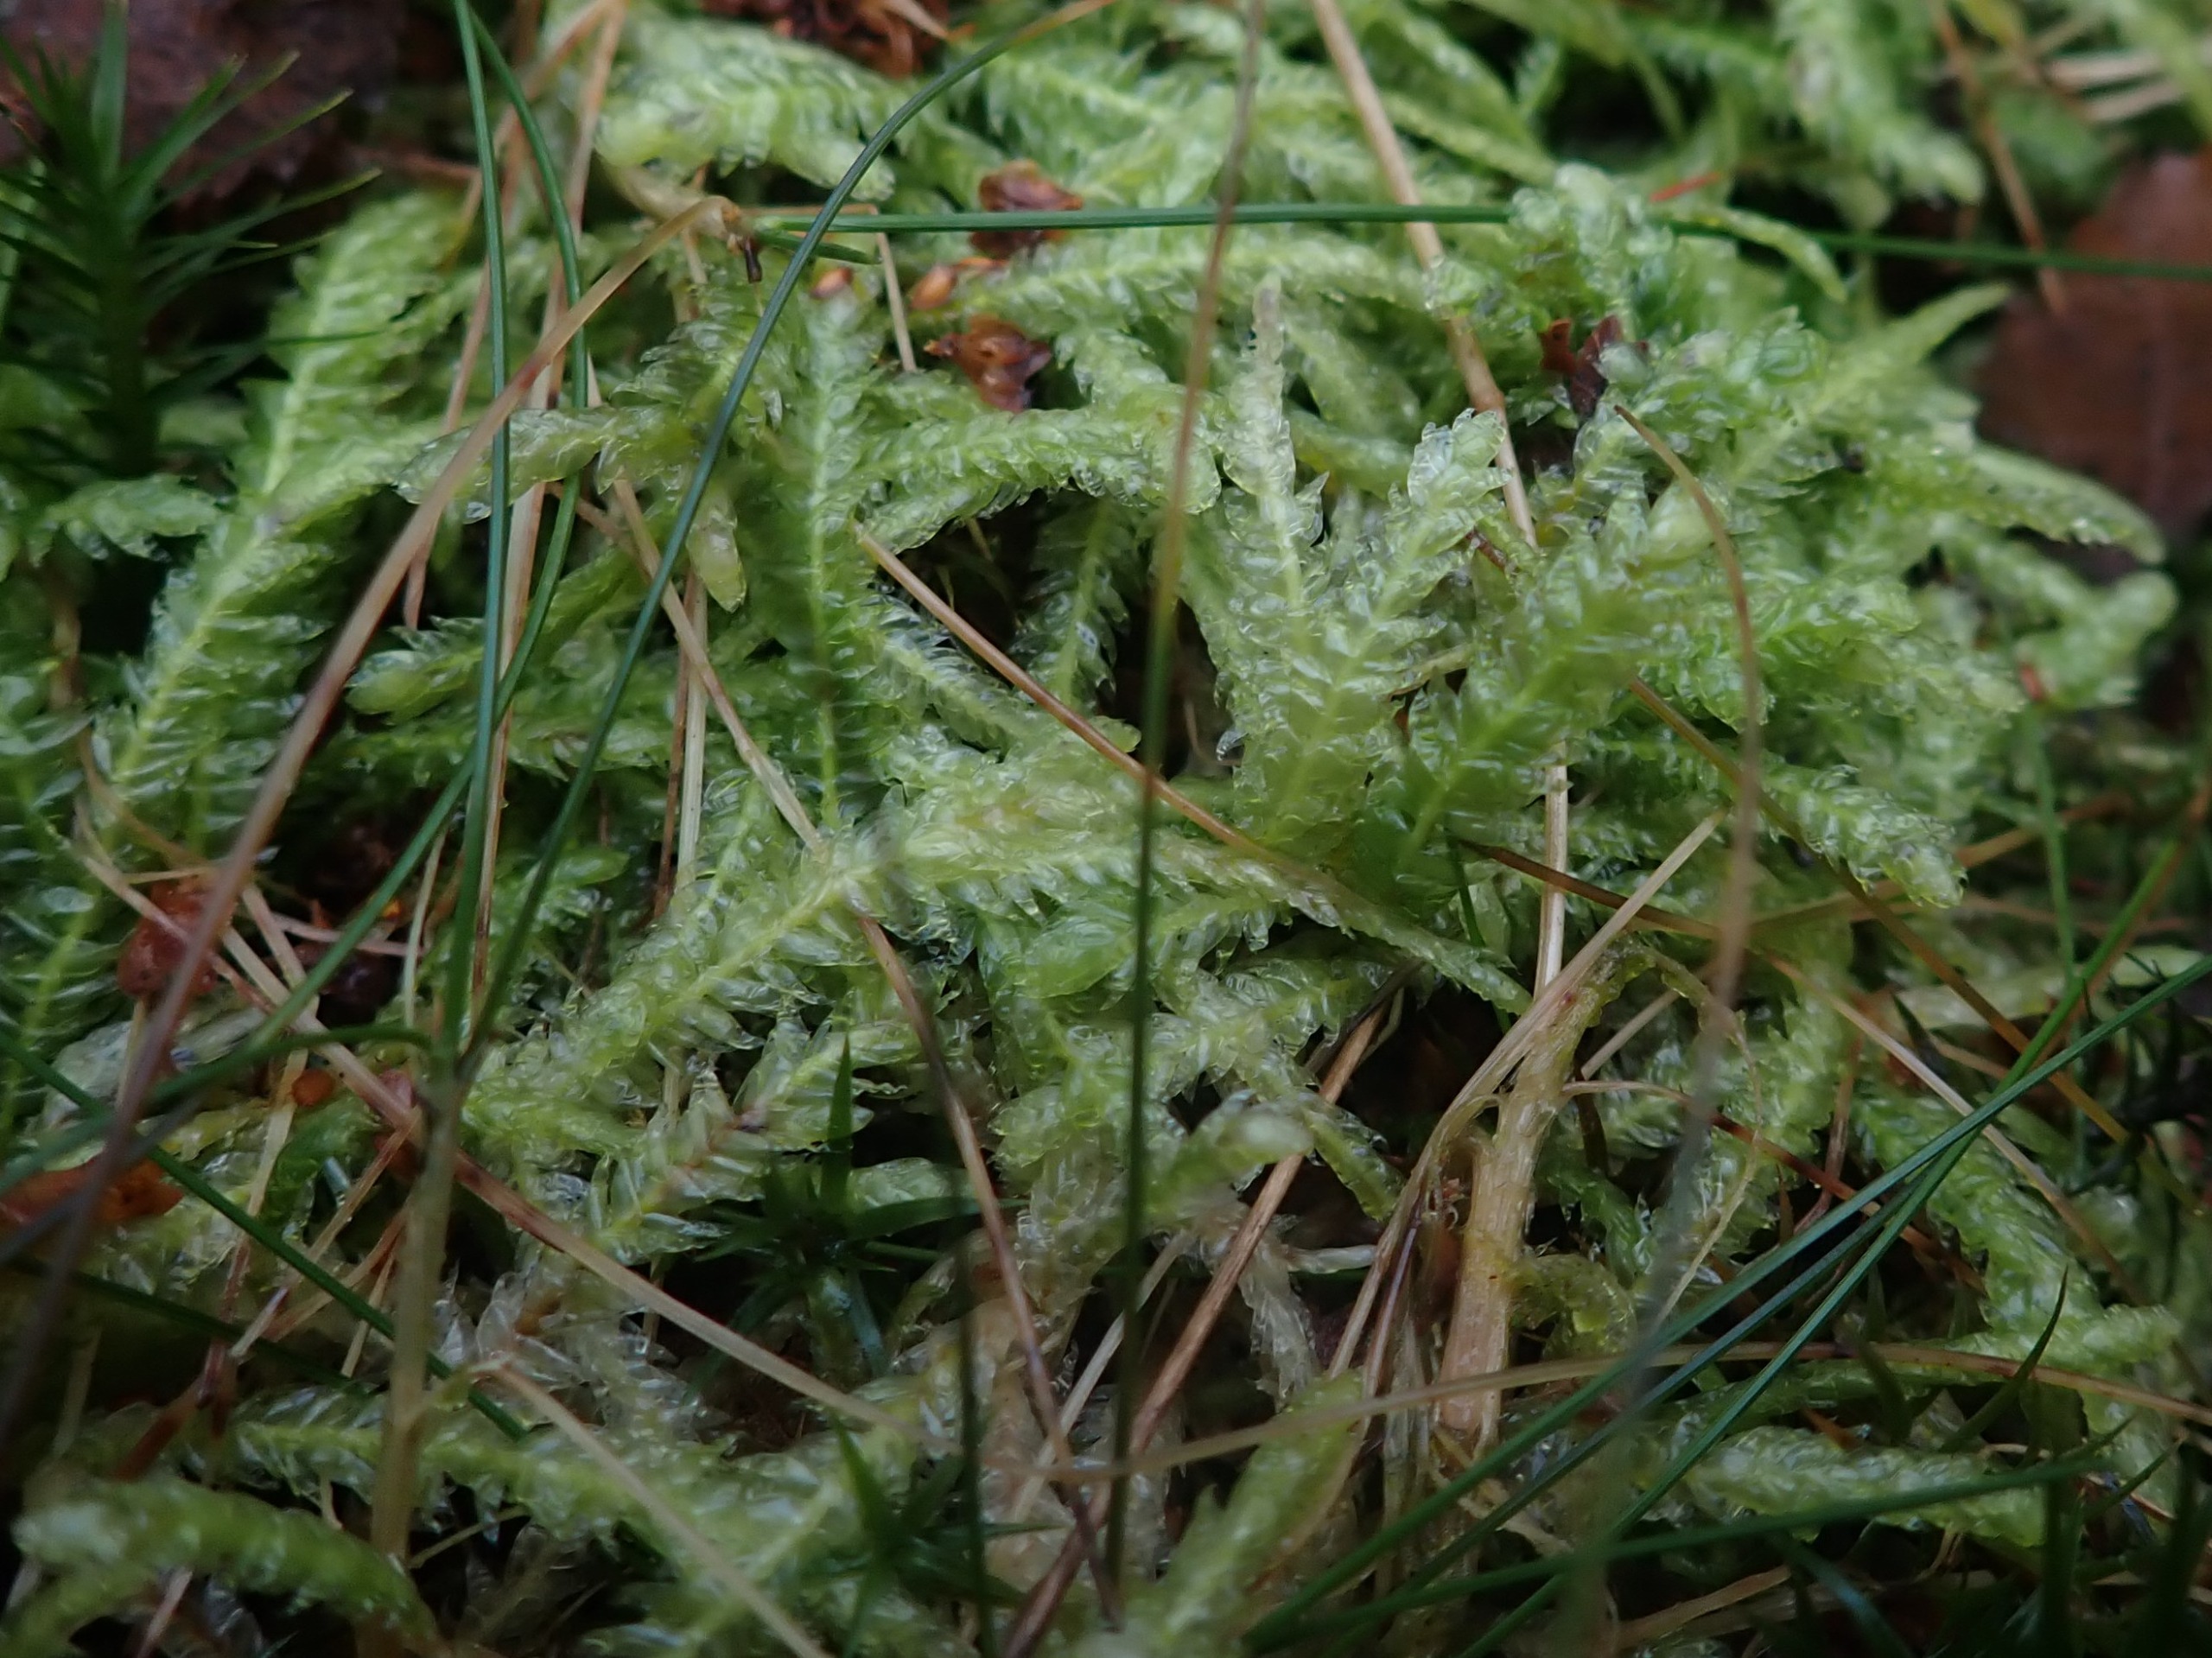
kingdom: Plantae
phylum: Bryophyta
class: Bryopsida
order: Hypnales
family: Plagiotheciaceae
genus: Plagiothecium
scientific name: Plagiothecium undulatum
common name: Bølget tæppemos
